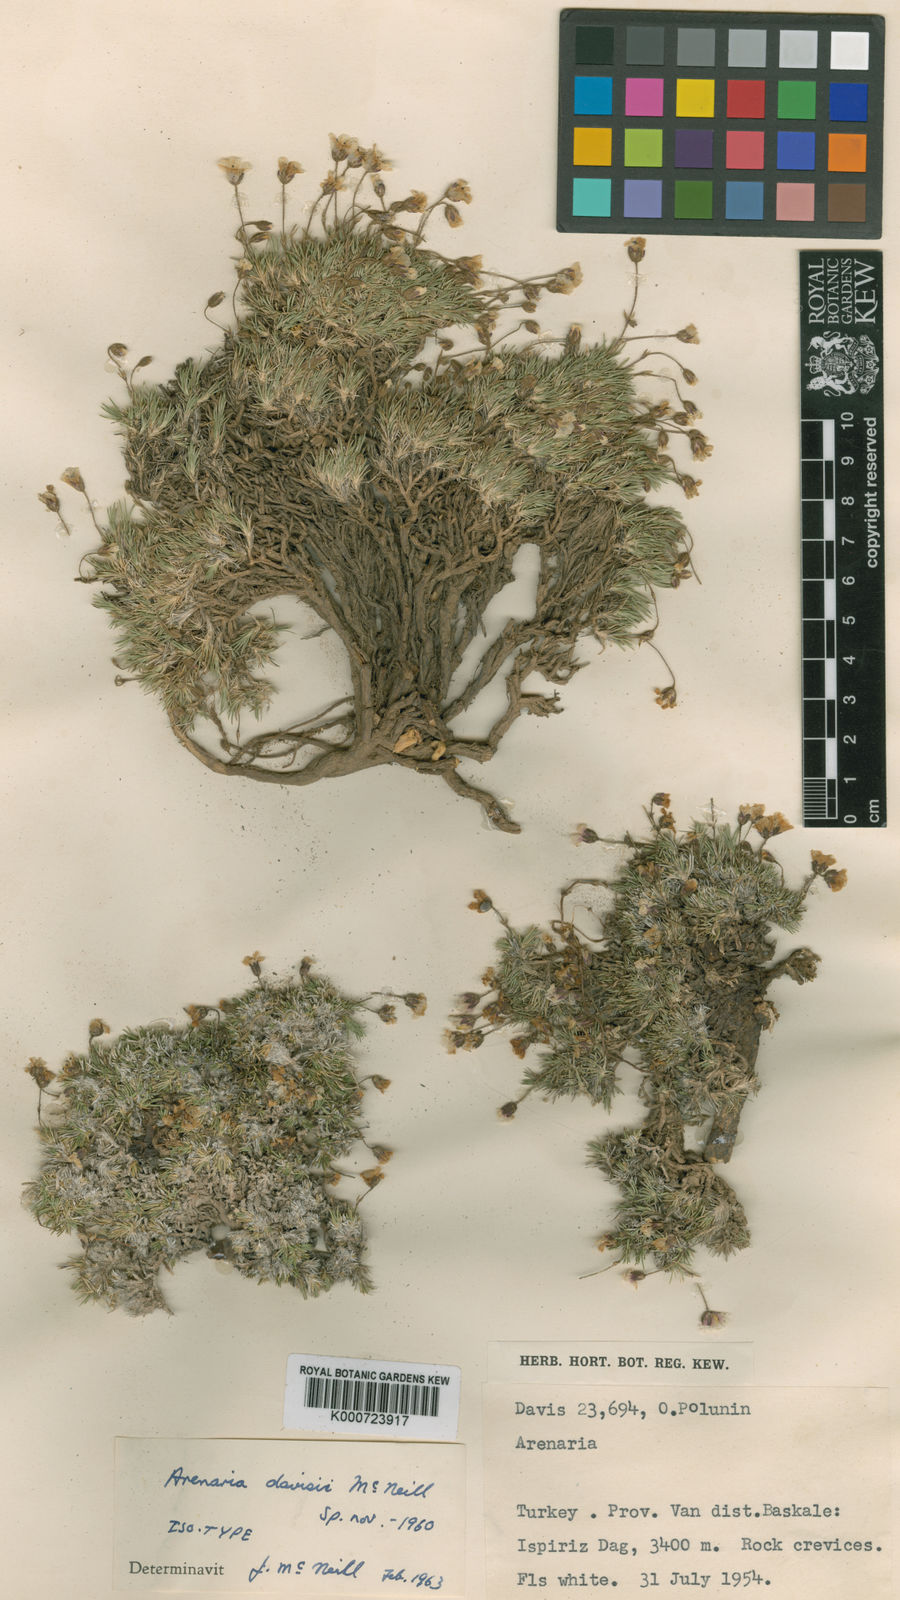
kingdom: Plantae
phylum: Tracheophyta
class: Magnoliopsida
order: Caryophyllales
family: Caryophyllaceae
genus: Eremogone
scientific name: Eremogone davisii
